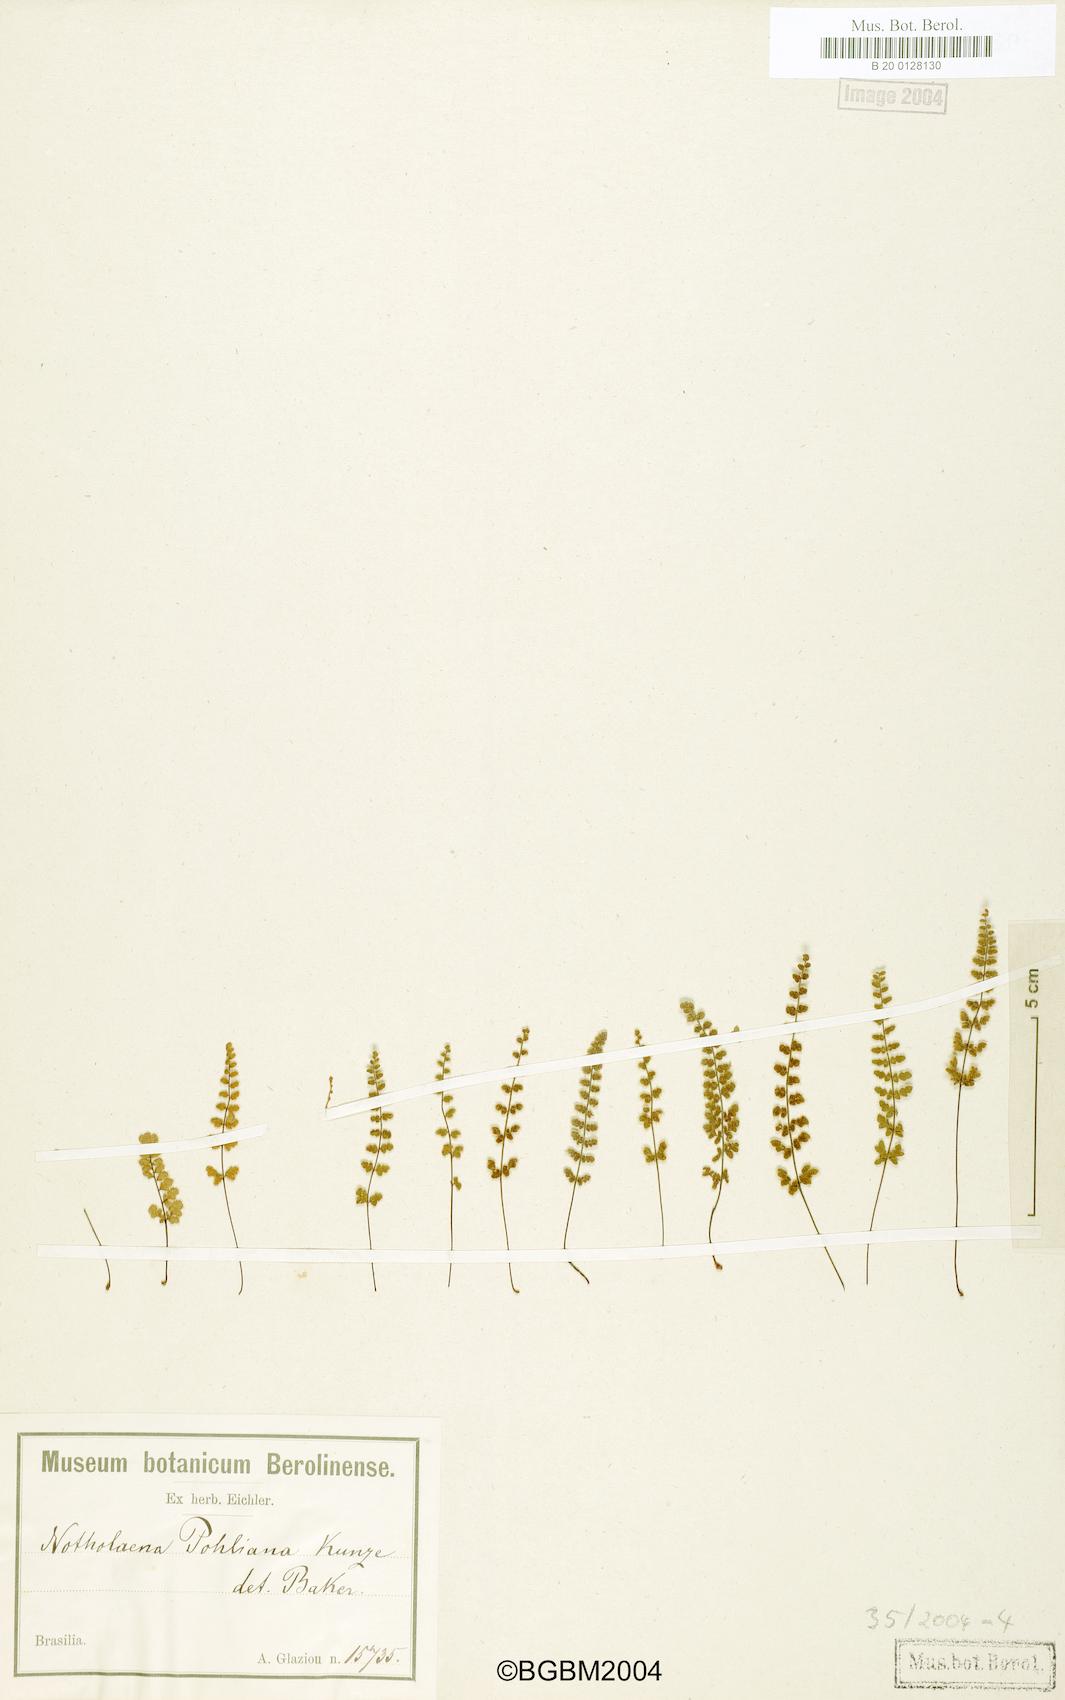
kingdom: Plantae
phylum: Tracheophyta
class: Polypodiopsida
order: Polypodiales
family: Pteridaceae
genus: Cheilanthes
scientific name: Cheilanthes pohliana
